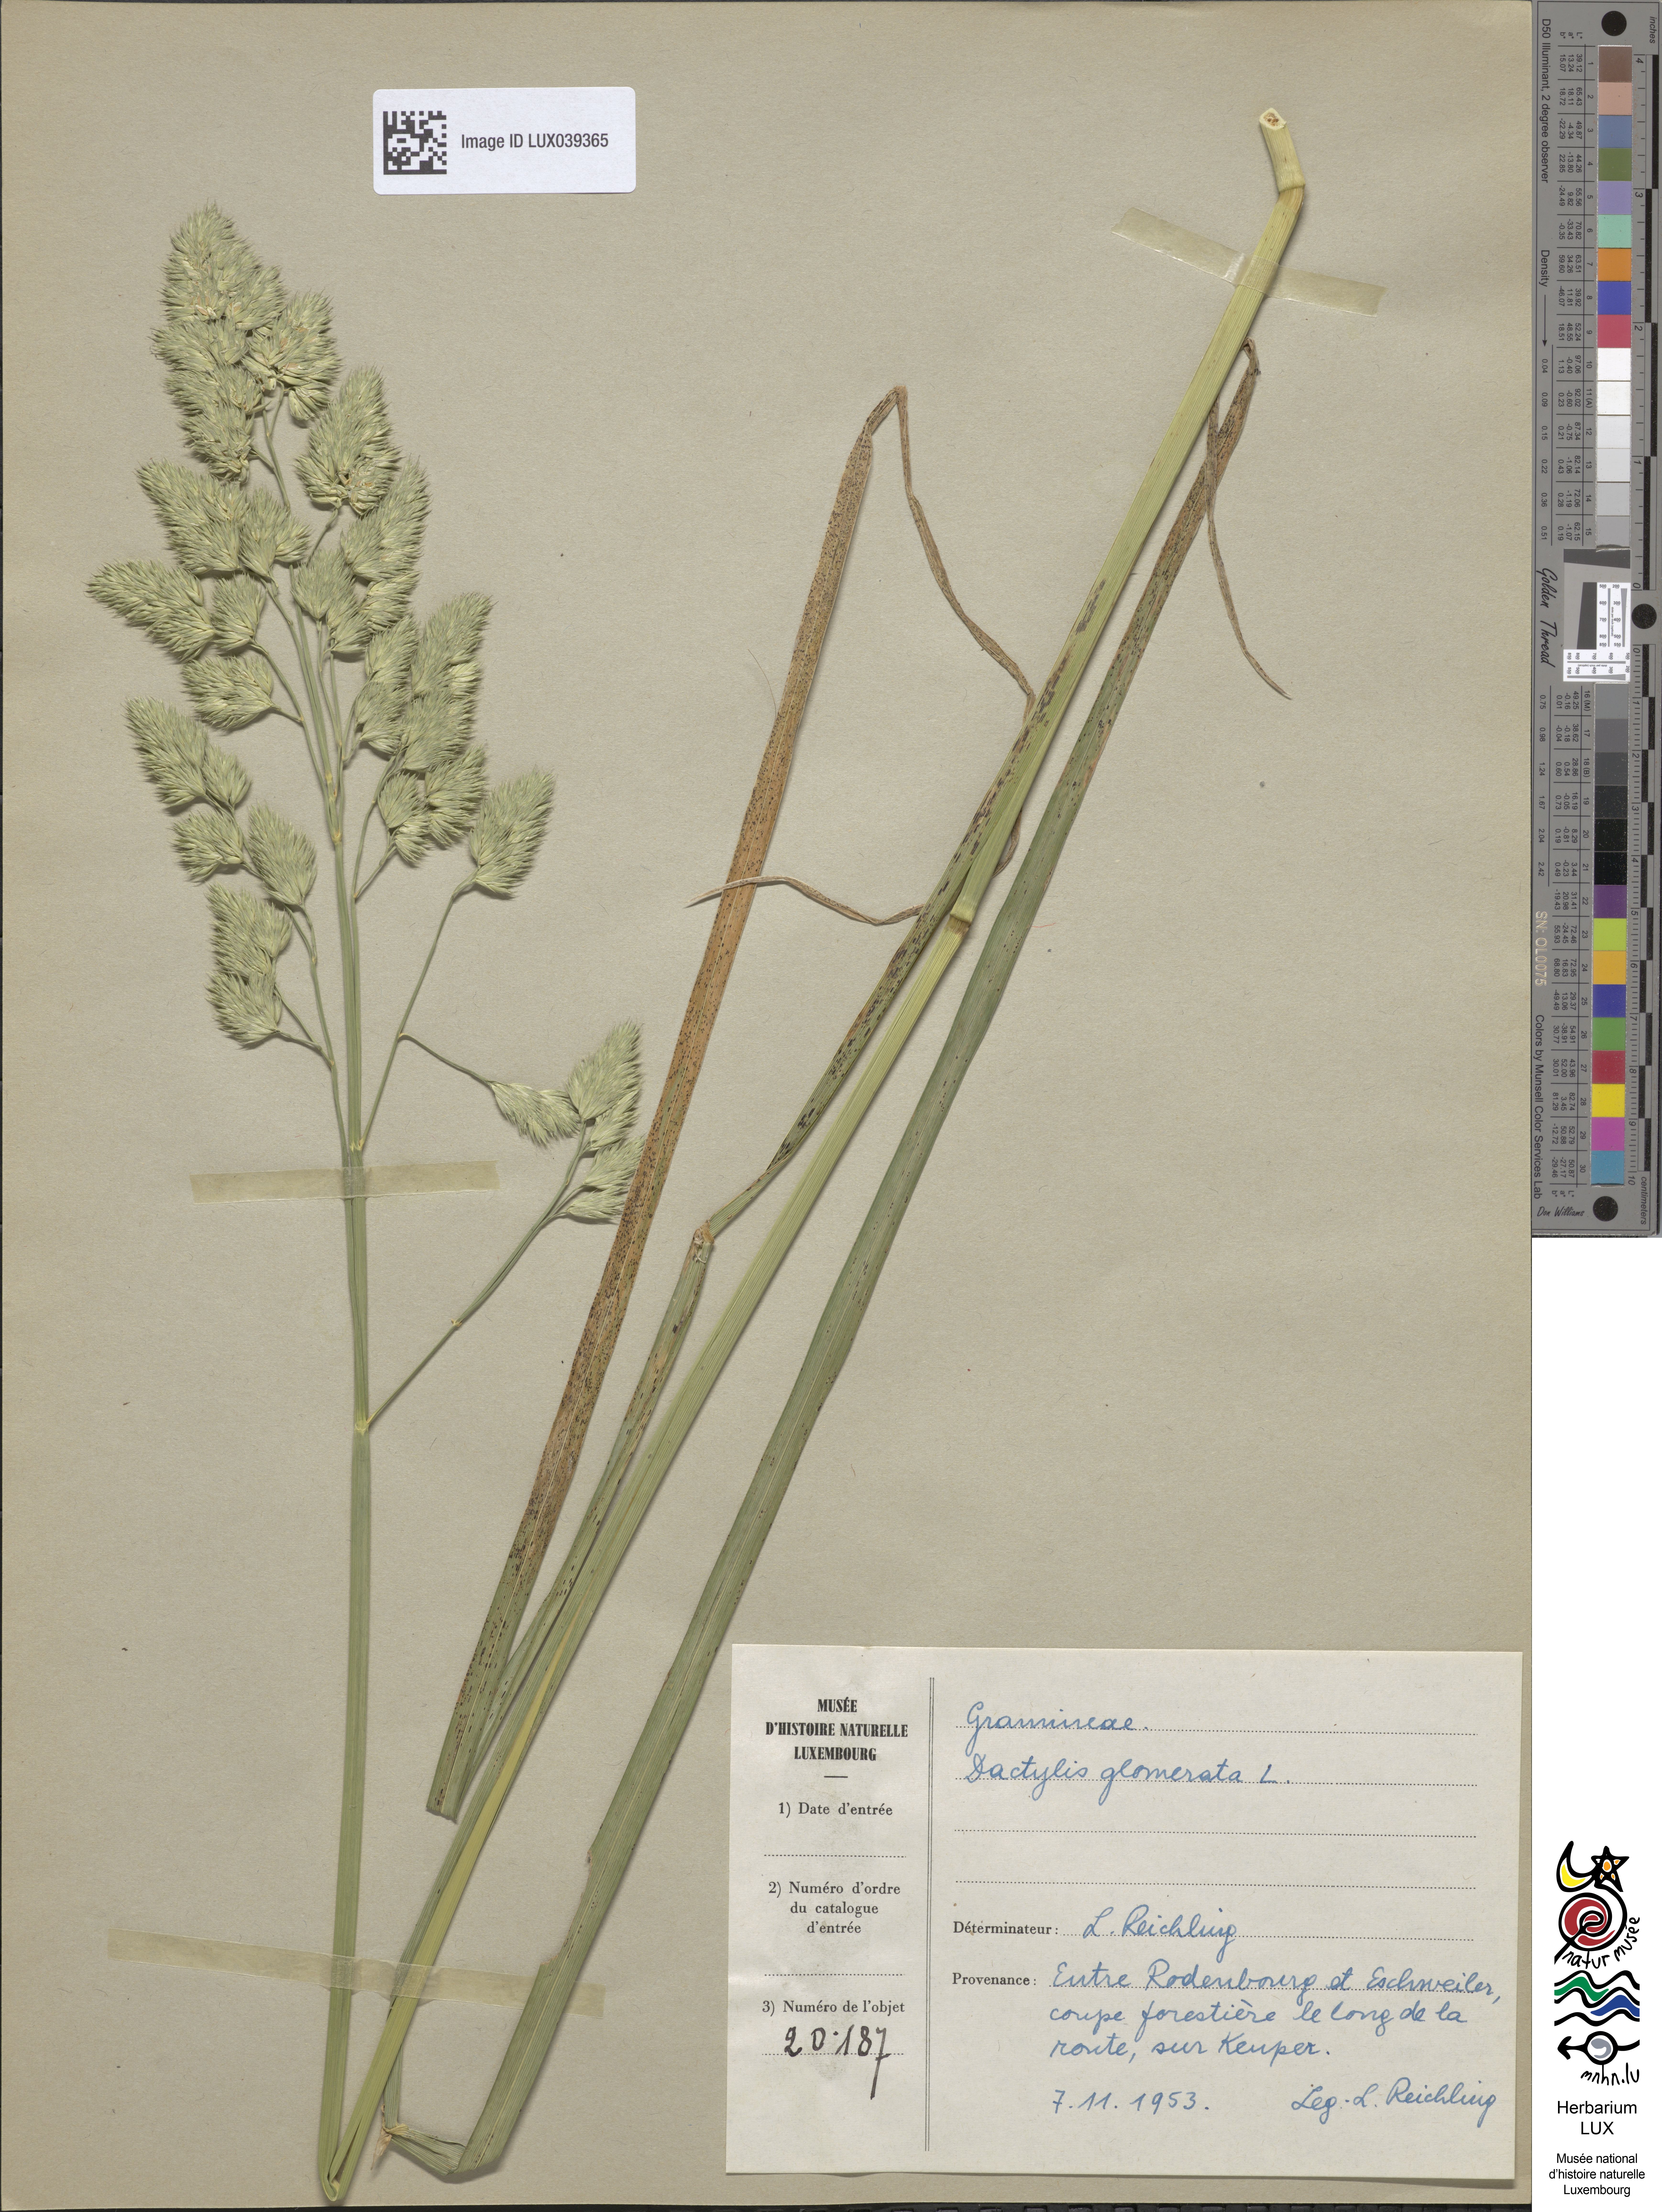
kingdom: Plantae
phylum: Tracheophyta
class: Liliopsida
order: Poales
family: Poaceae
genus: Dactylis
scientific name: Dactylis glomerata
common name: Orchardgrass
